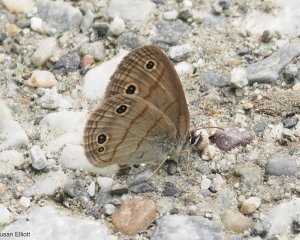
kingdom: Animalia
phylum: Arthropoda
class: Insecta
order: Lepidoptera
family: Nymphalidae
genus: Euptychia
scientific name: Euptychia cymela
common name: Little Wood Satyr
